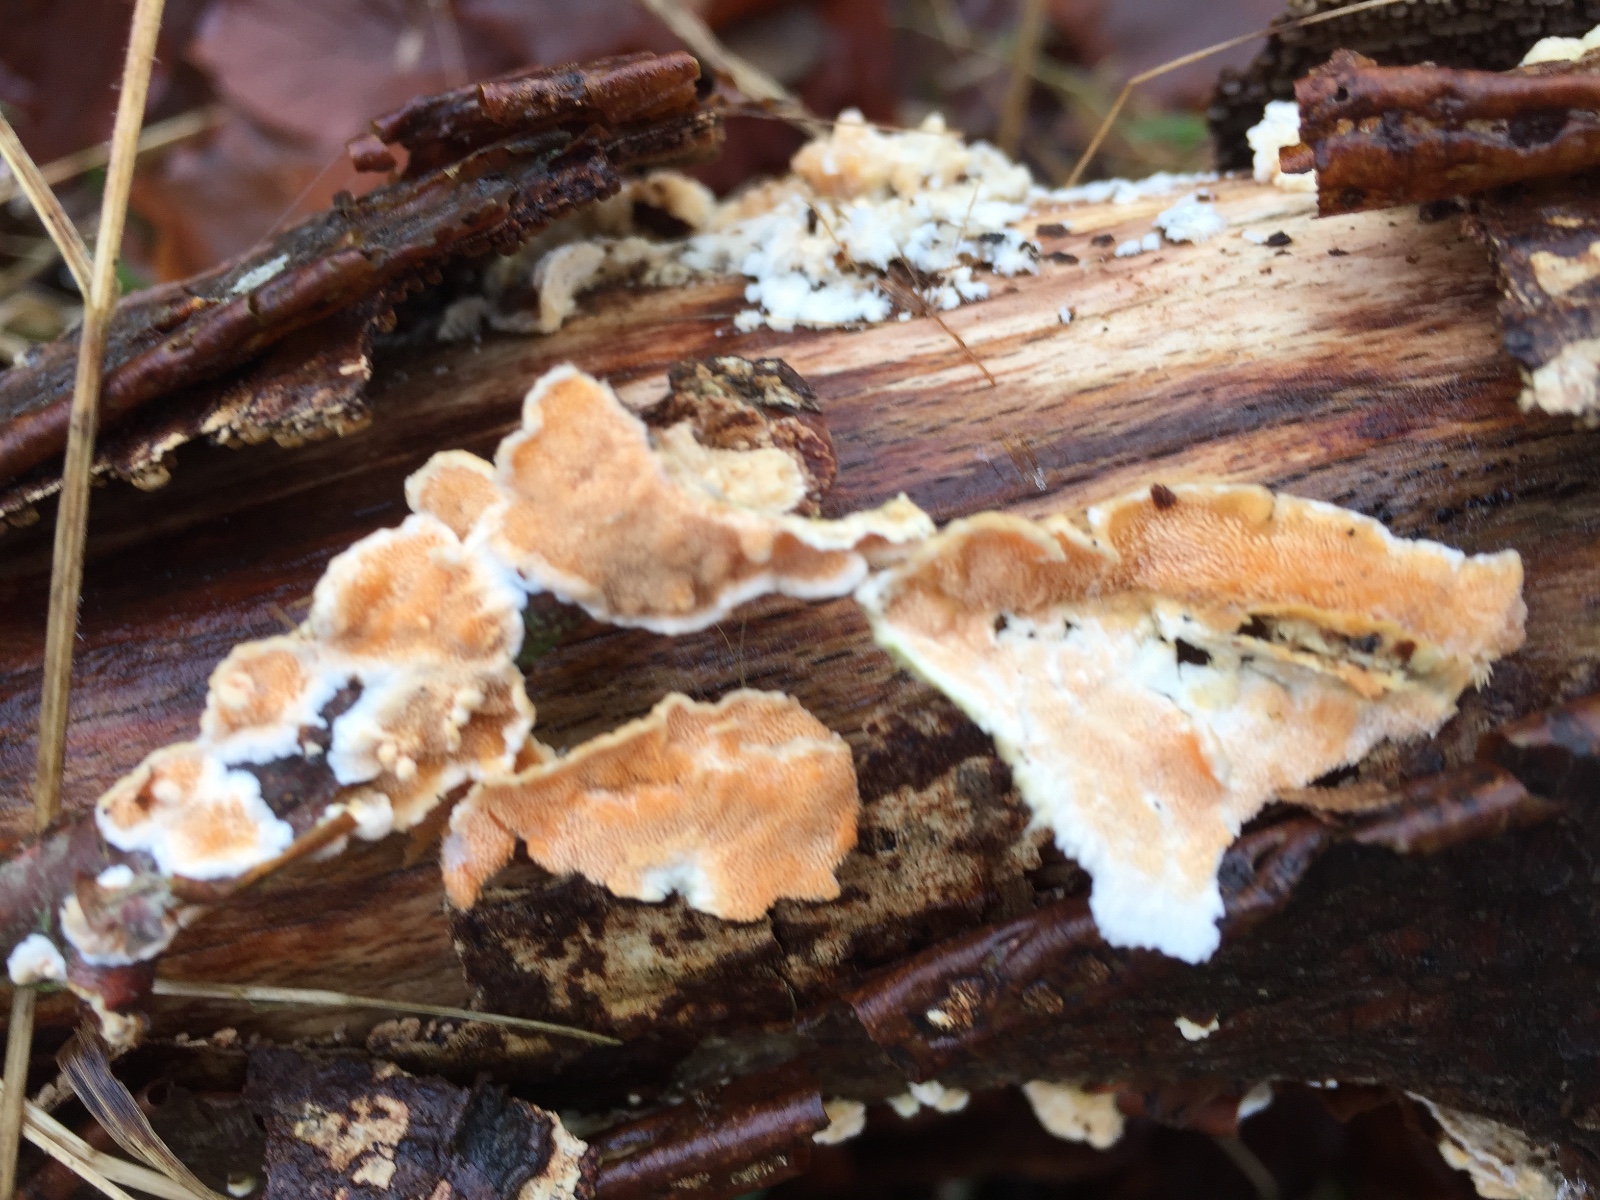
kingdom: Fungi
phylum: Basidiomycota
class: Agaricomycetes
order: Polyporales
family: Steccherinaceae
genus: Steccherinum
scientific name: Steccherinum ochraceum
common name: almindelig skønpig
